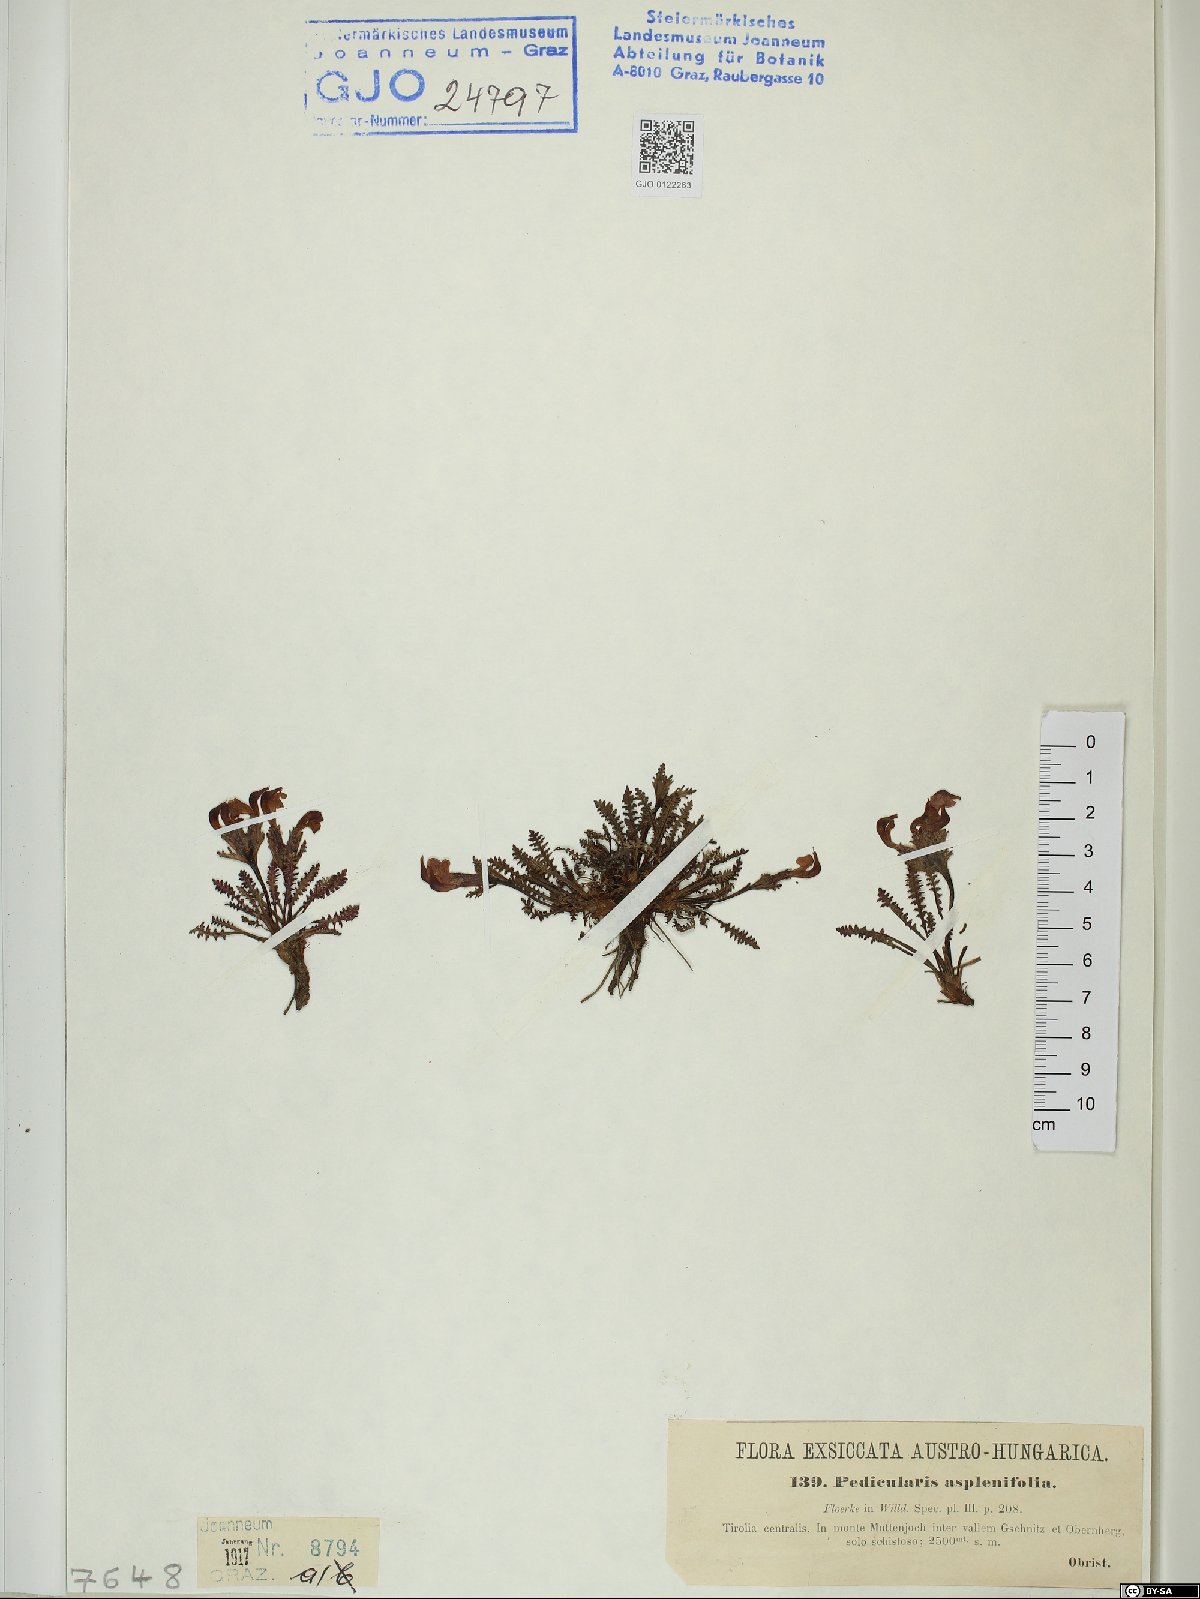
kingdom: Plantae
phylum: Tracheophyta
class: Magnoliopsida
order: Lamiales
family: Orobanchaceae
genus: Pedicularis
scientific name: Pedicularis asplenifolia
